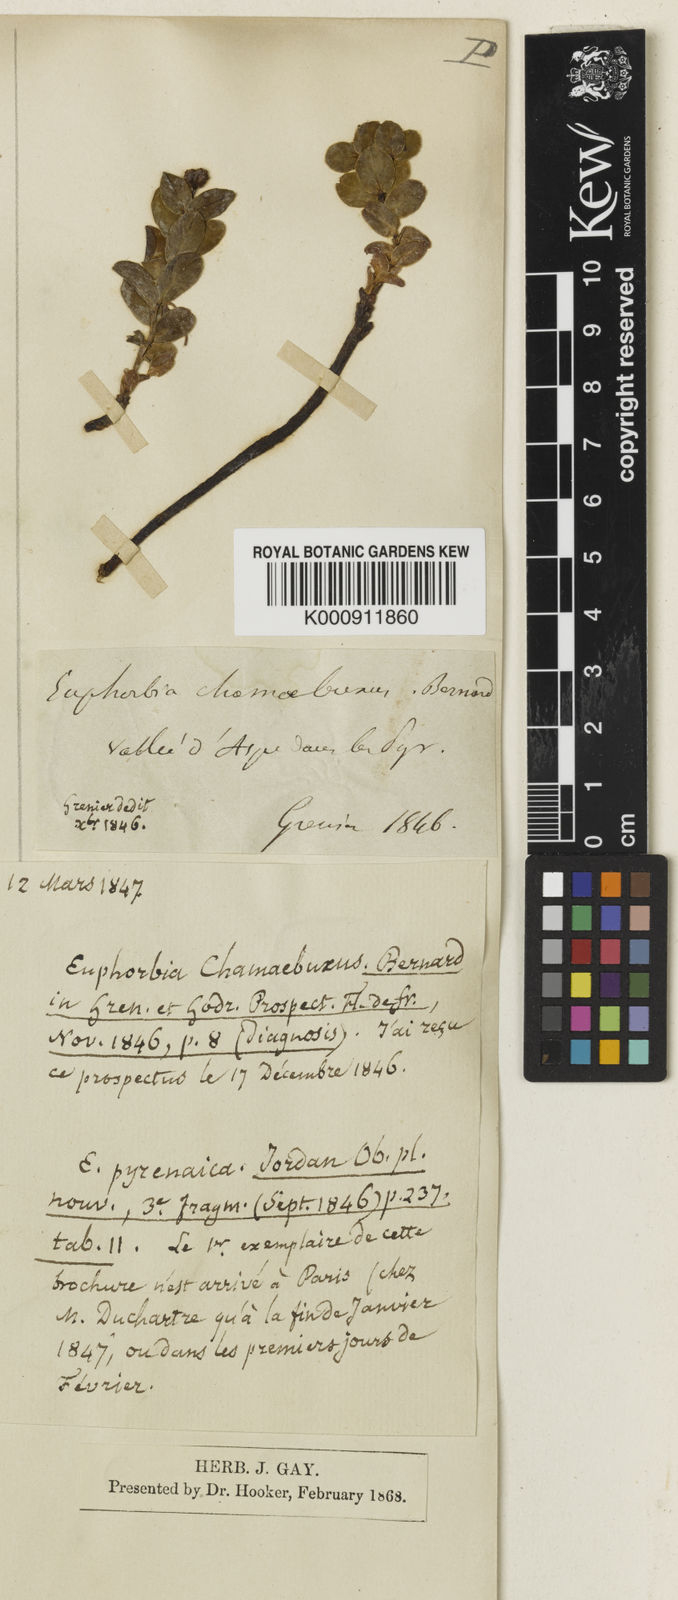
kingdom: Plantae
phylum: Tracheophyta
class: Magnoliopsida
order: Malpighiales
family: Euphorbiaceae
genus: Euphorbia
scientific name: Euphorbia pyrenaica
